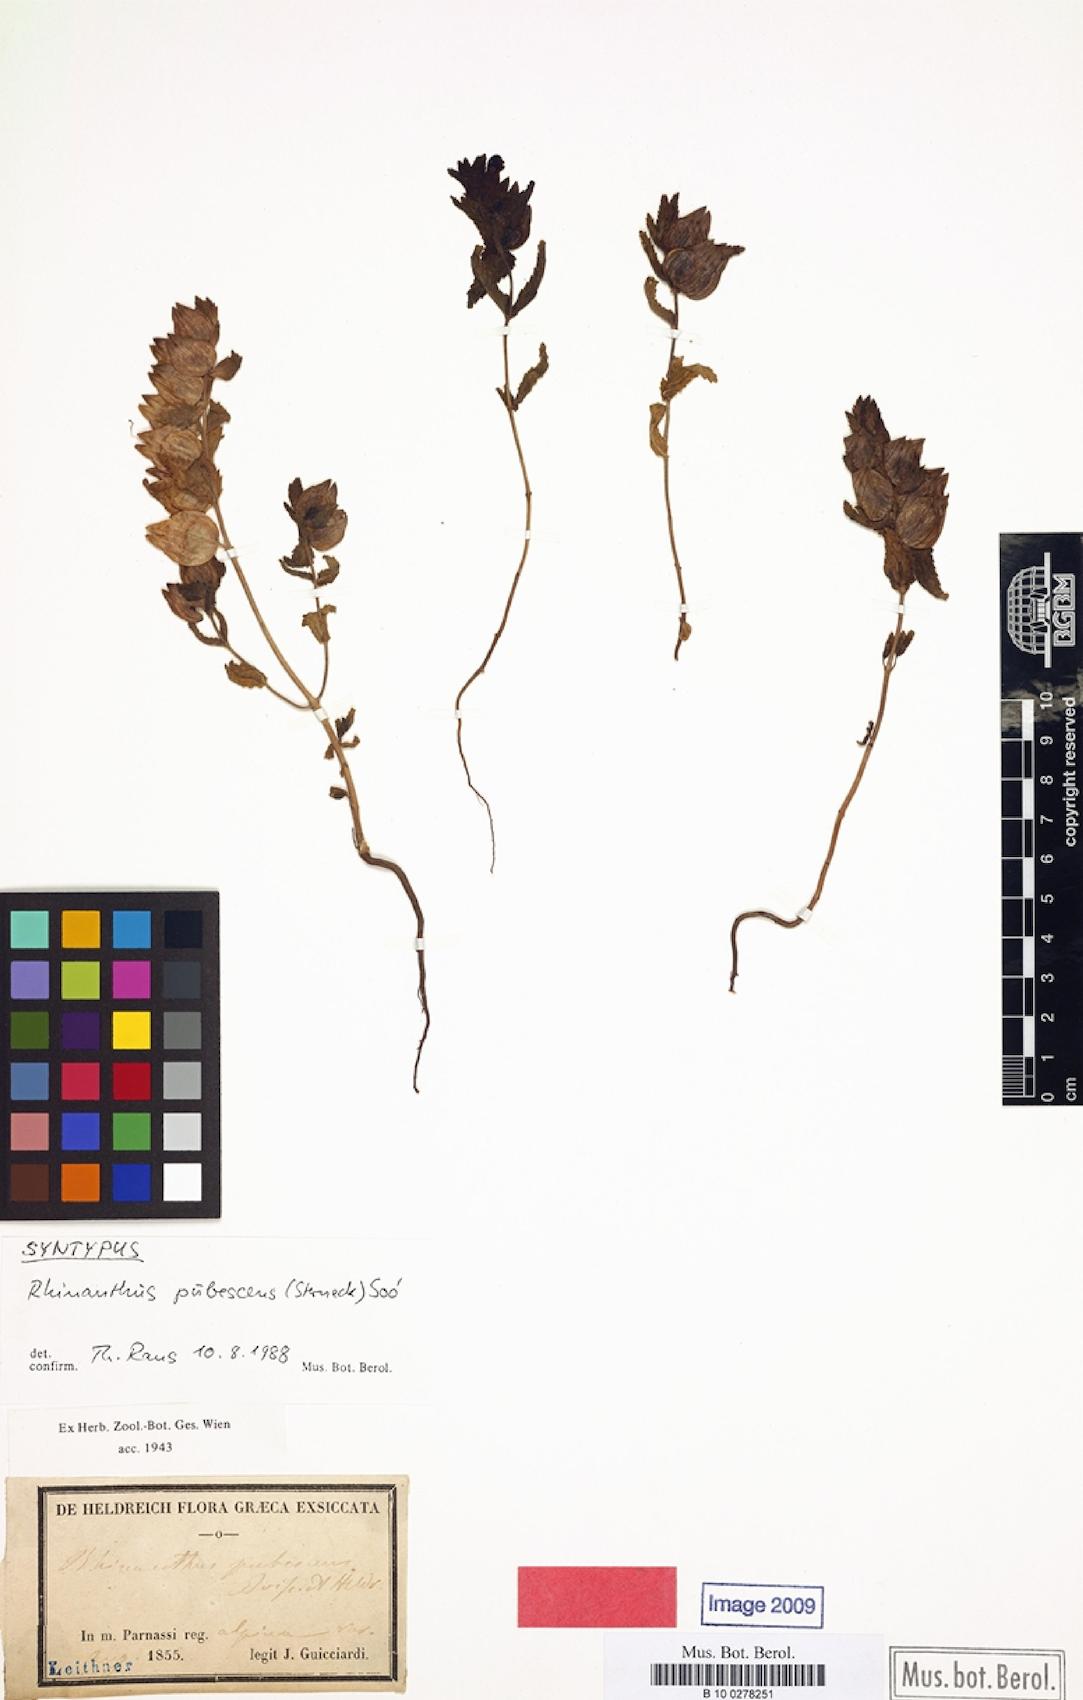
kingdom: Plantae
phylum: Tracheophyta
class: Magnoliopsida
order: Lamiales
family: Orobanchaceae
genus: Rhinanthus
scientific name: Rhinanthus pubescens
